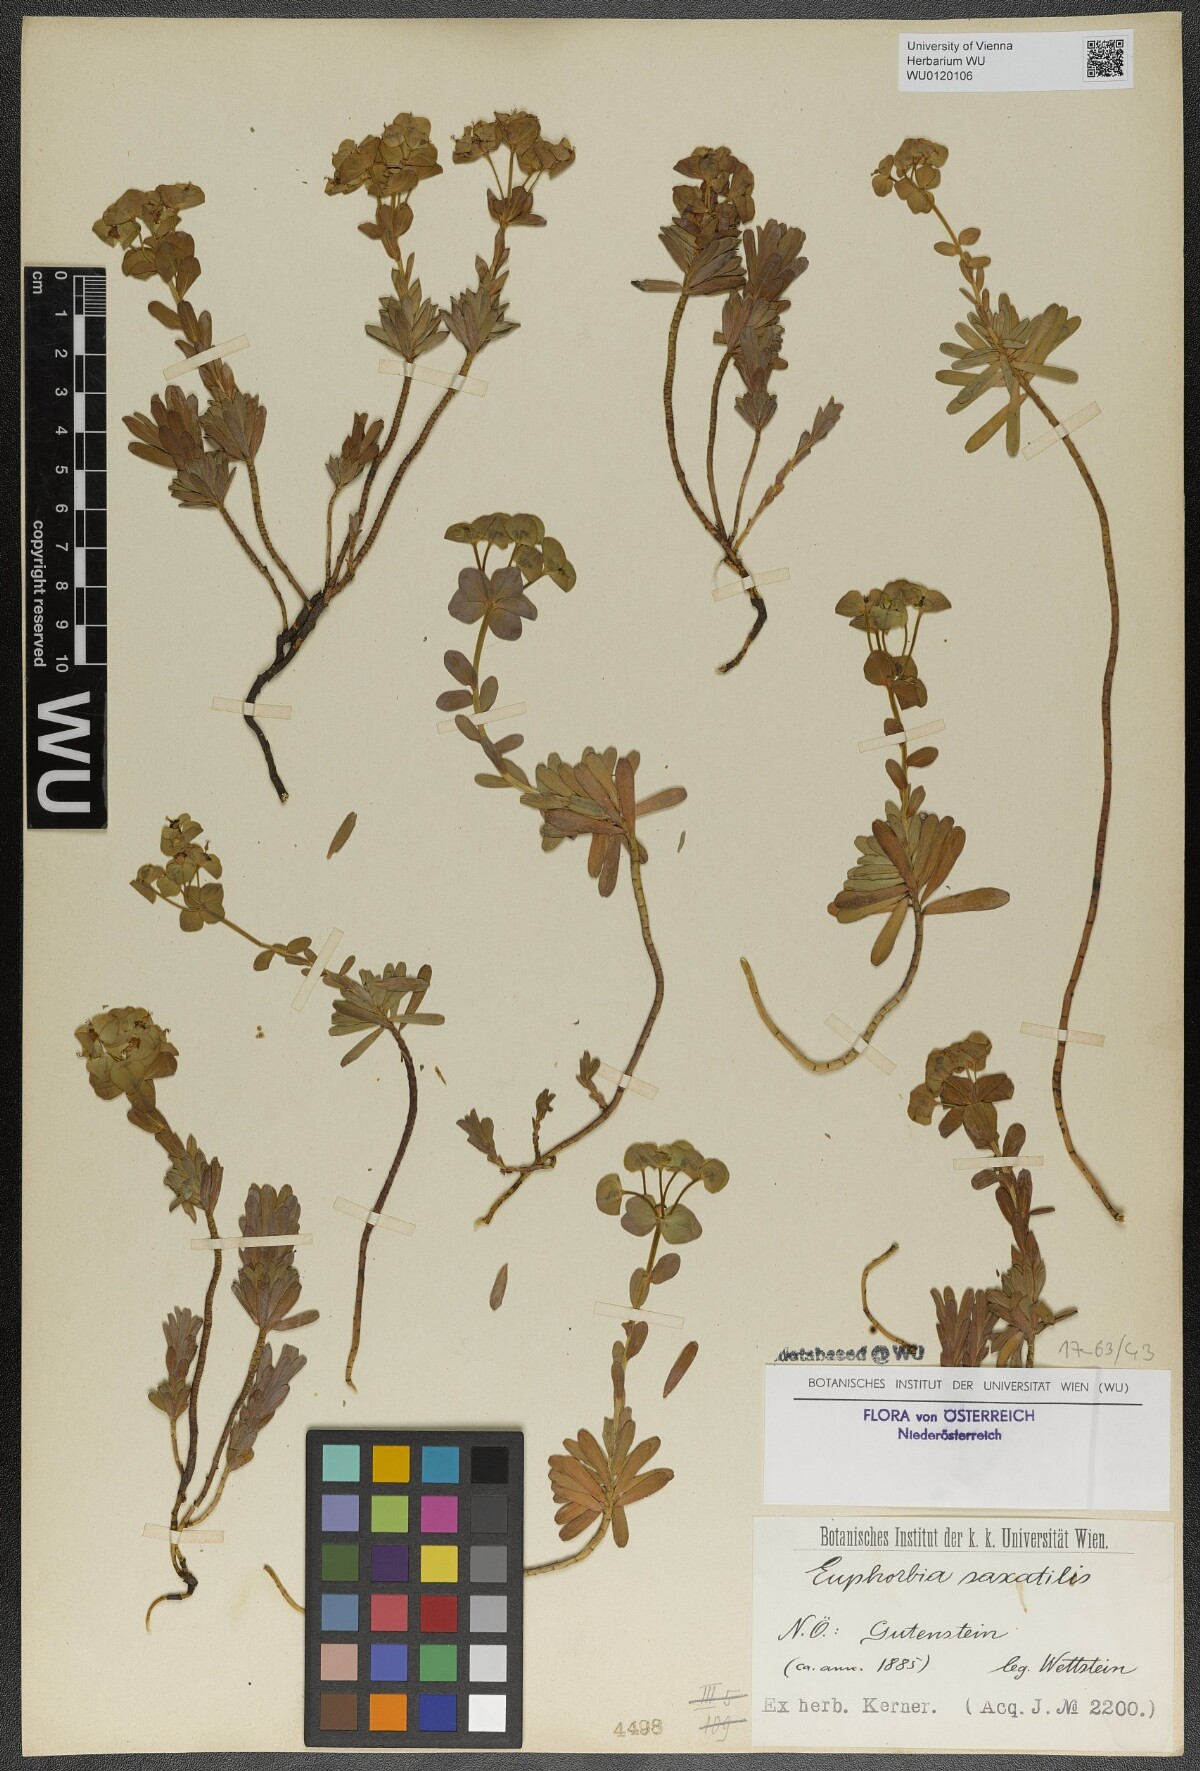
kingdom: Plantae
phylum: Tracheophyta
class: Magnoliopsida
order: Malpighiales
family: Euphorbiaceae
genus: Euphorbia
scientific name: Euphorbia saxatilis
